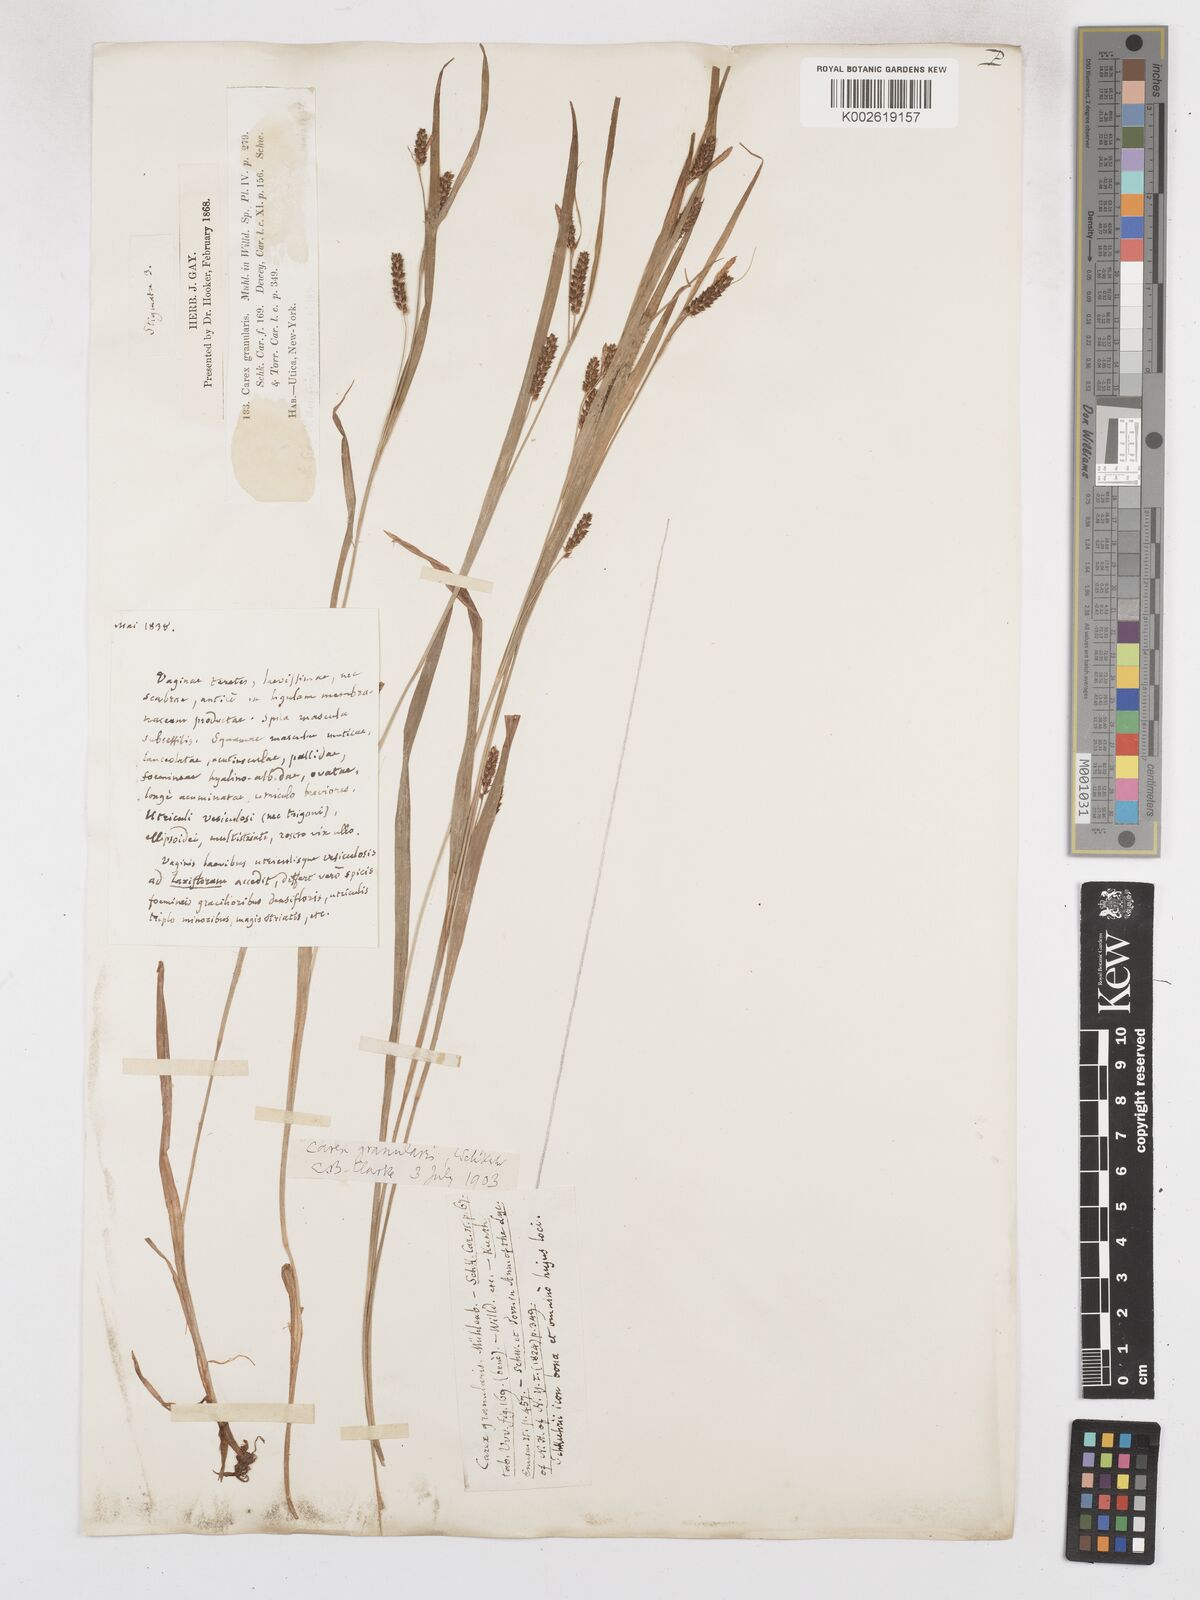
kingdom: Plantae
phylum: Tracheophyta
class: Liliopsida
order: Poales
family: Cyperaceae
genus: Carex
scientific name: Carex granularis
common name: Granular sedge
